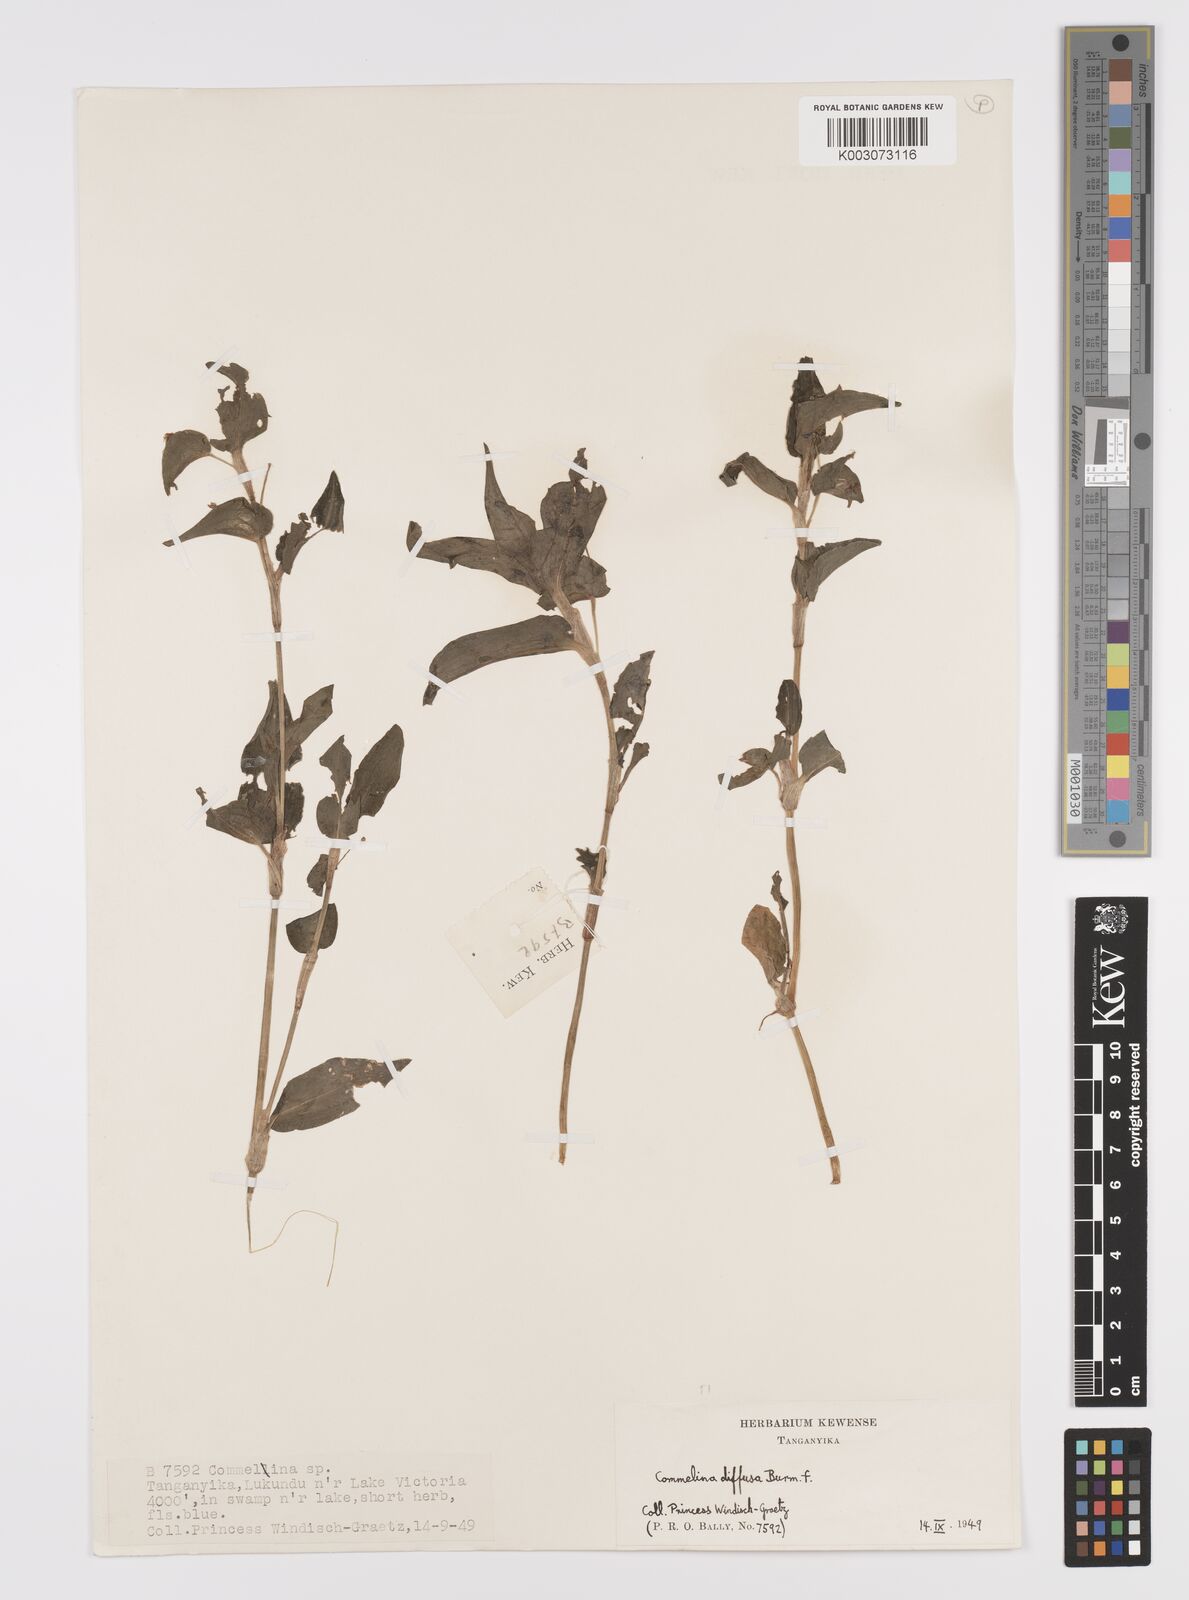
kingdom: Plantae
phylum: Tracheophyta
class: Liliopsida
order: Commelinales
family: Commelinaceae
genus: Commelina
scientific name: Commelina diffusa
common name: Climbing dayflower
